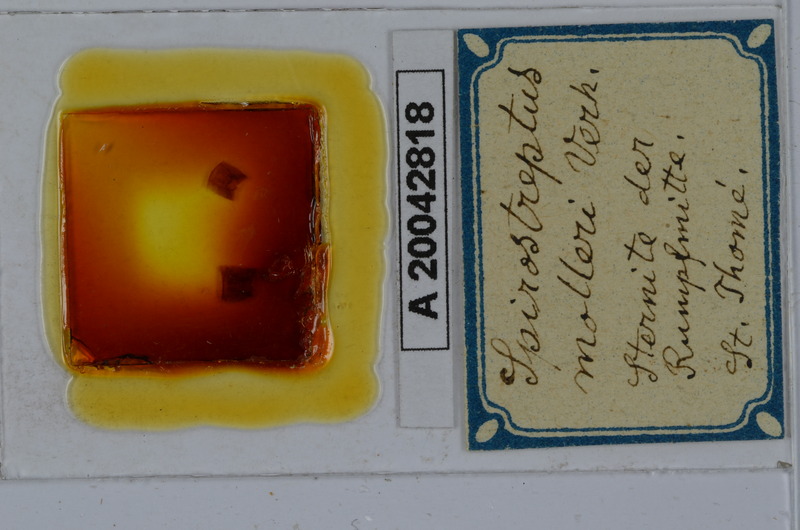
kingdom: Animalia
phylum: Arthropoda
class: Diplopoda
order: Spirostreptida
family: Spirostreptidae
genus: Globanus
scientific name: Globanus integer
